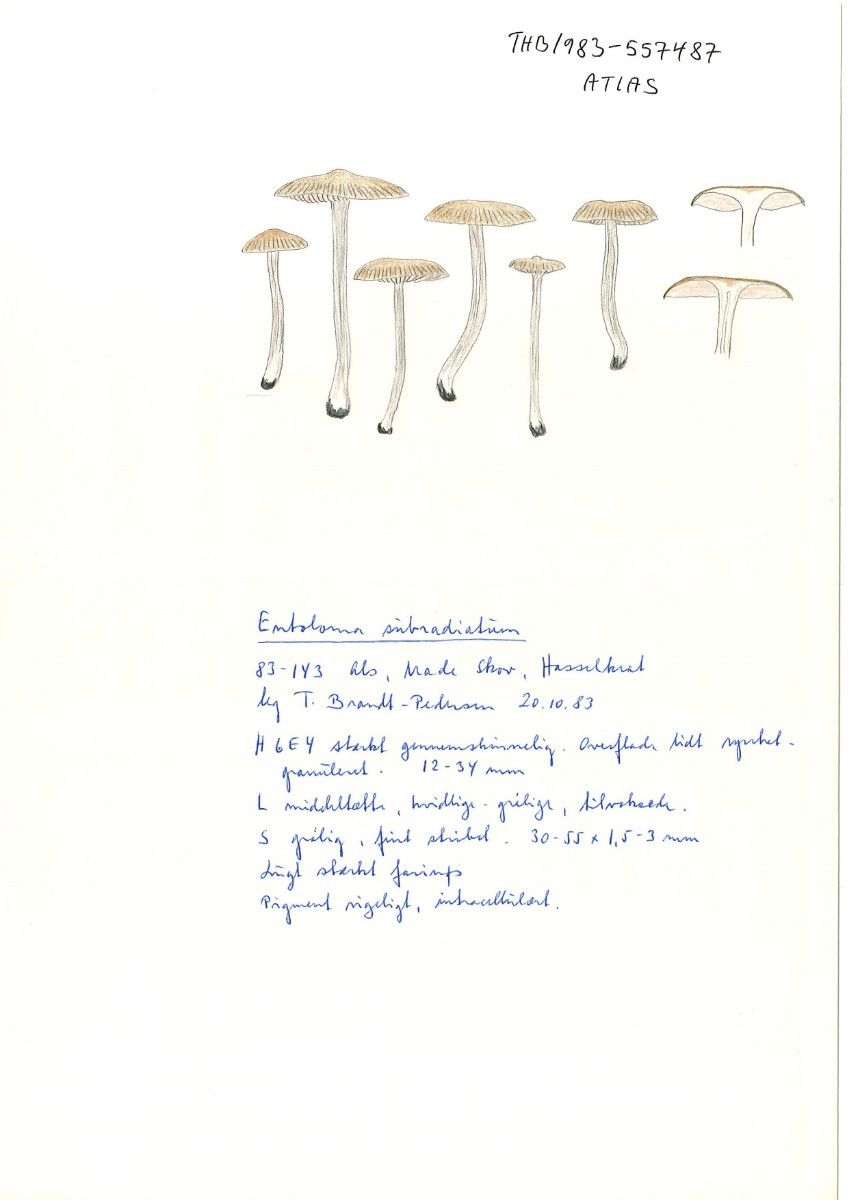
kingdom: Fungi
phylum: Basidiomycota
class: Agaricomycetes
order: Agaricales
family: Entolomataceae
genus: Entoloma
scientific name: Entoloma subradiatum
